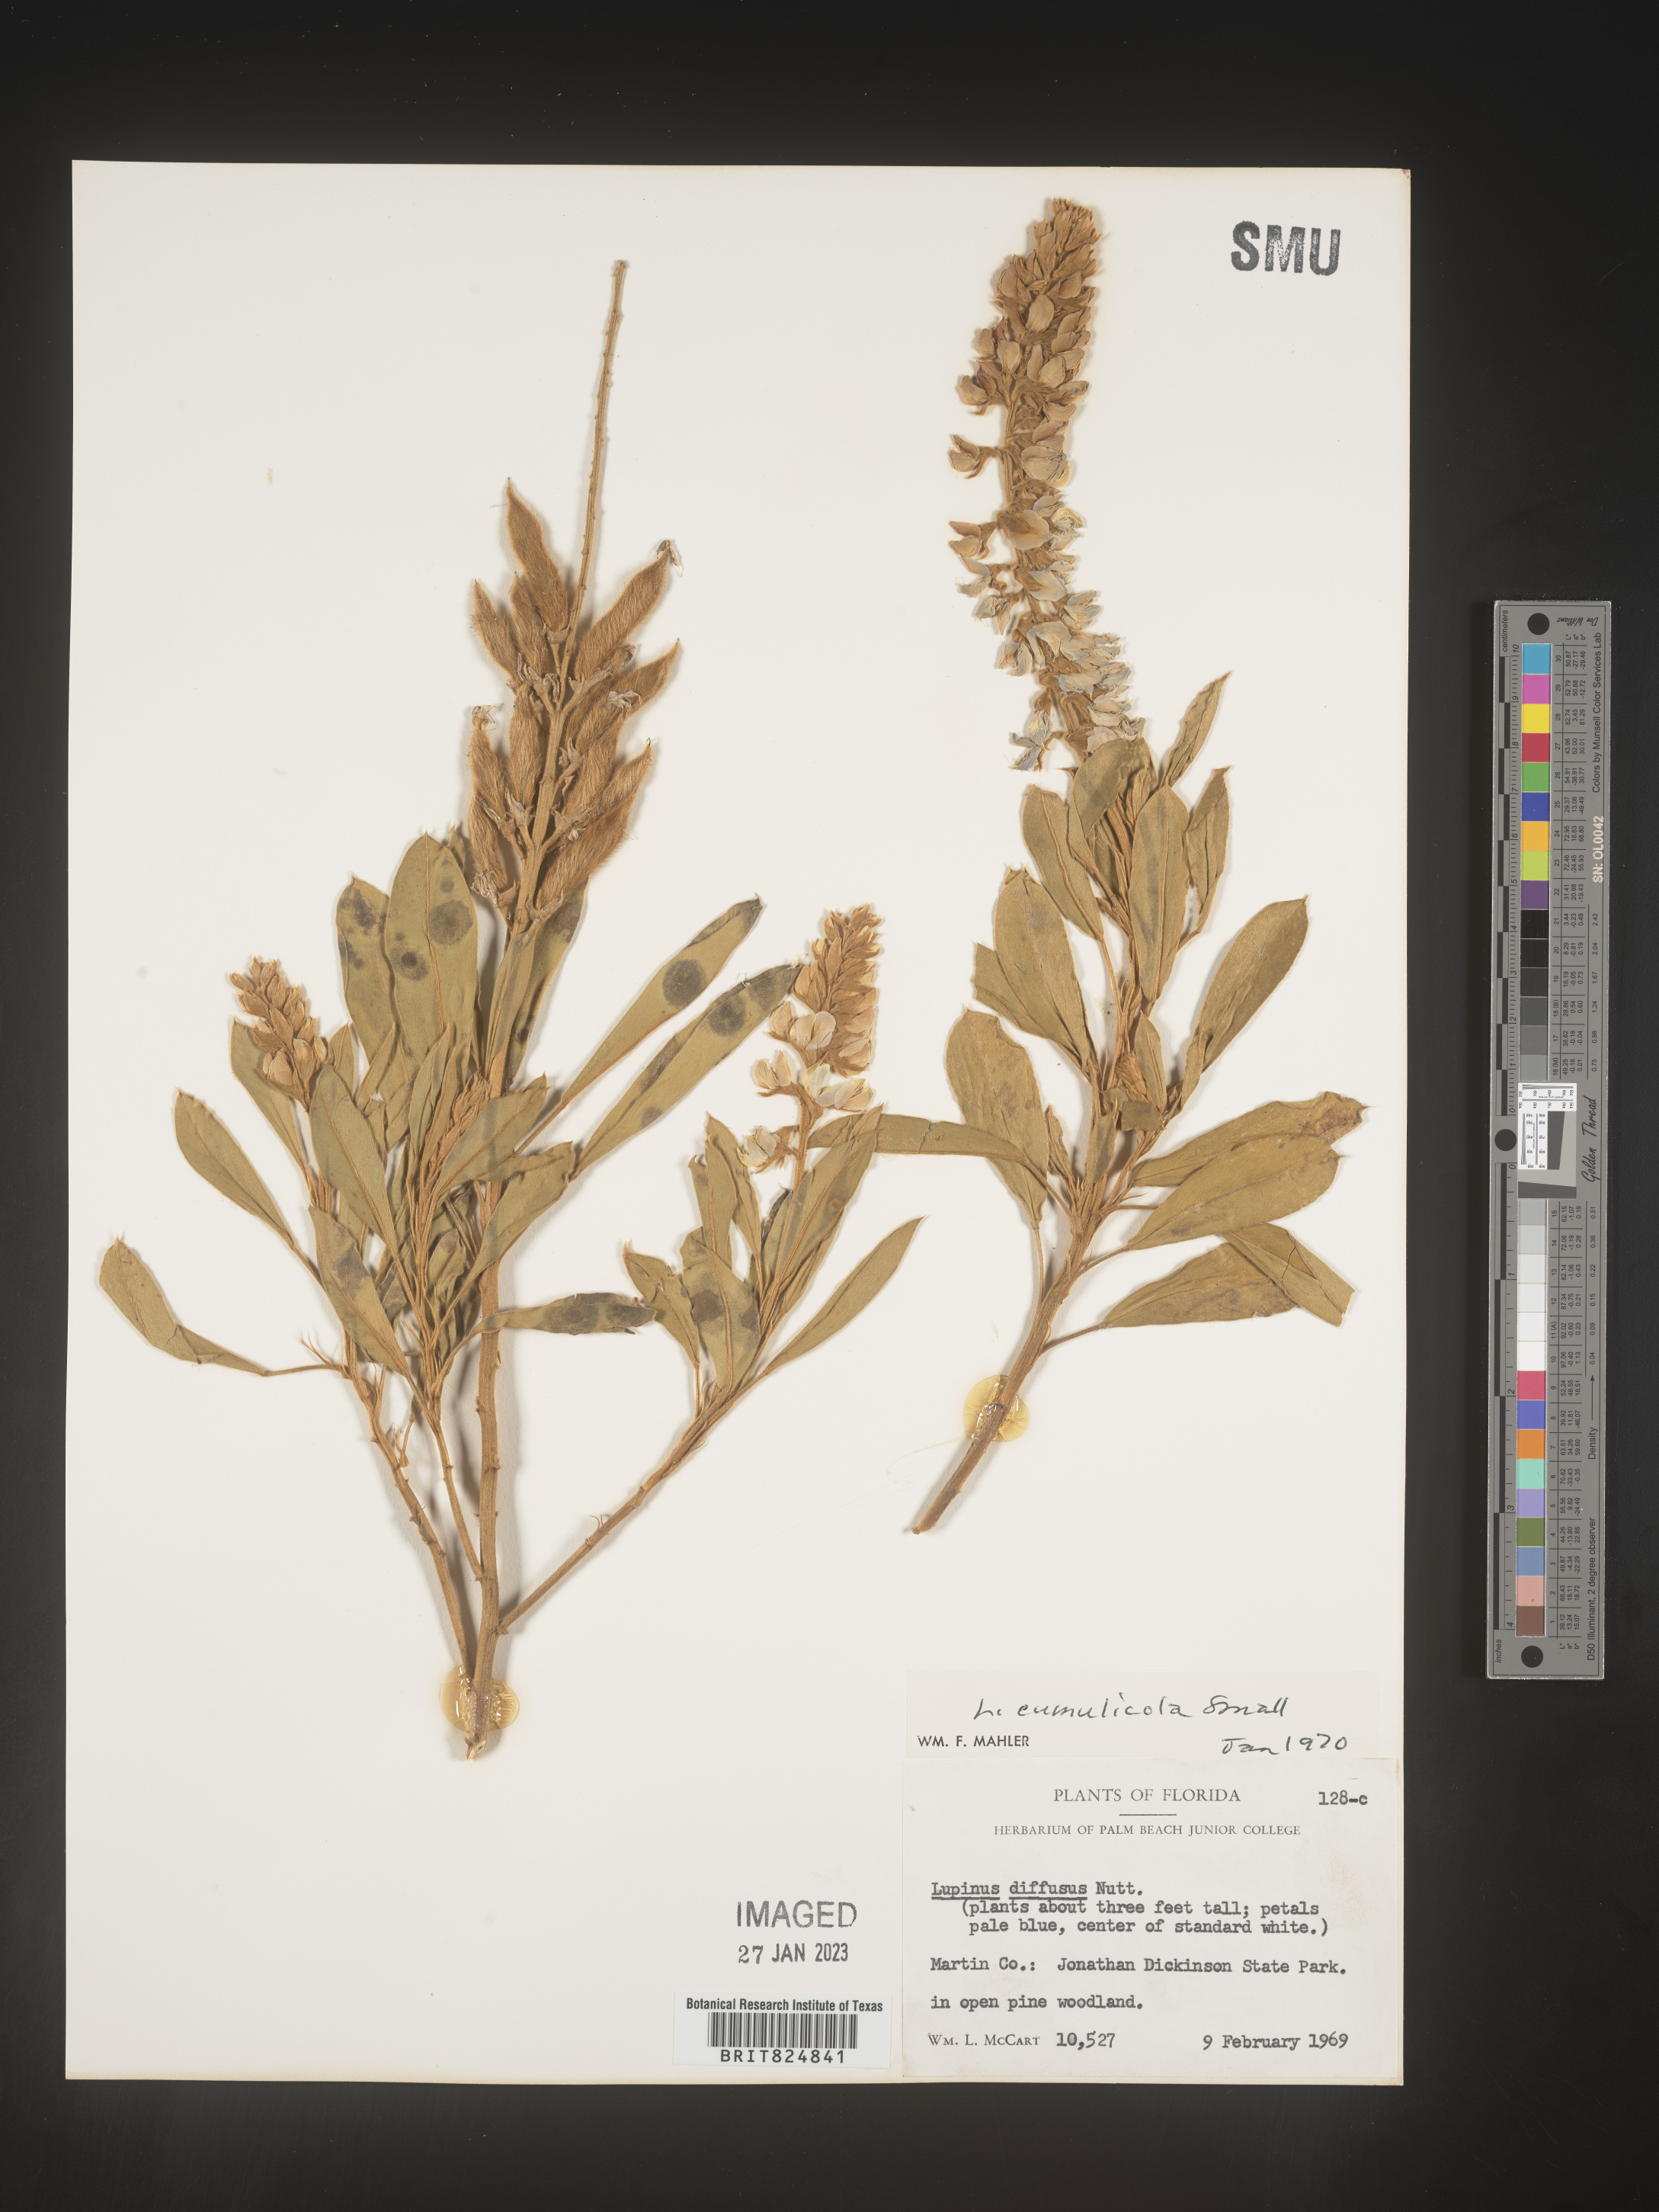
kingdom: Plantae
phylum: Tracheophyta
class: Magnoliopsida
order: Fabales
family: Fabaceae
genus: Lupinus
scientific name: Lupinus
